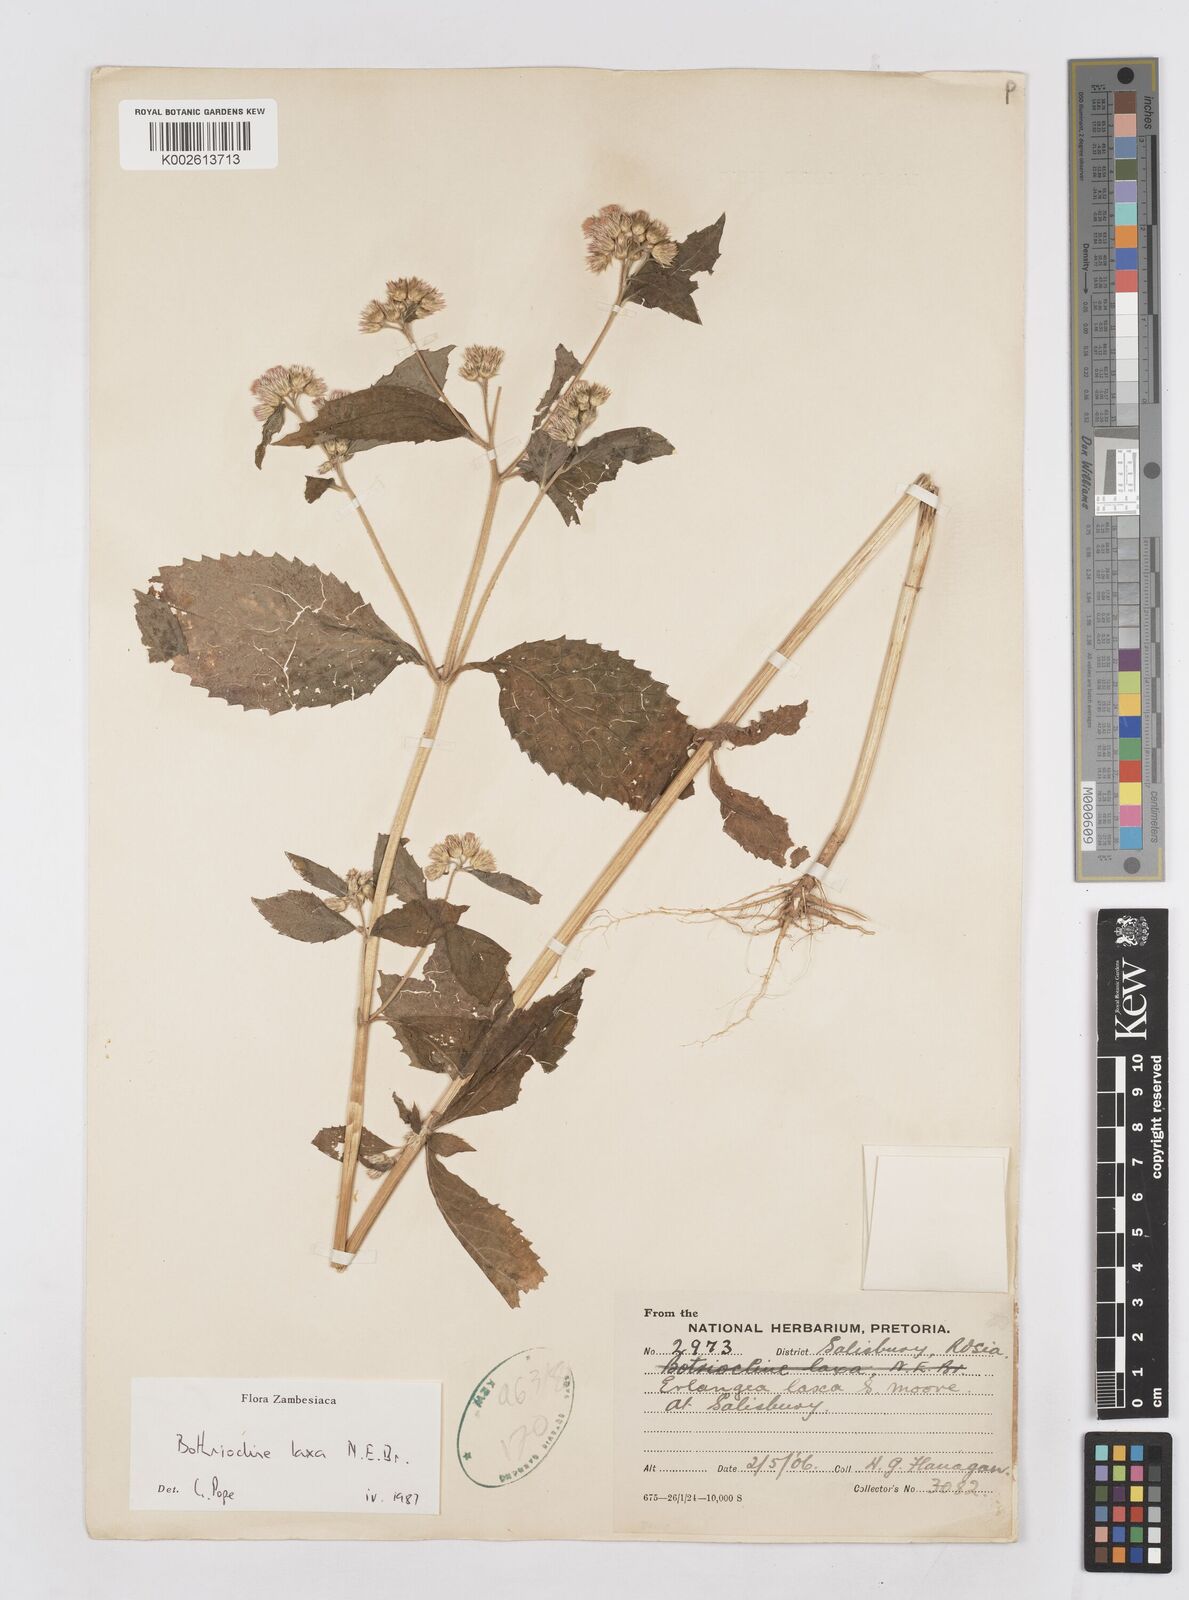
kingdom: Plantae
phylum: Tracheophyta
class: Magnoliopsida
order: Asterales
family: Asteraceae
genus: Bothriocline
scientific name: Bothriocline laxa
